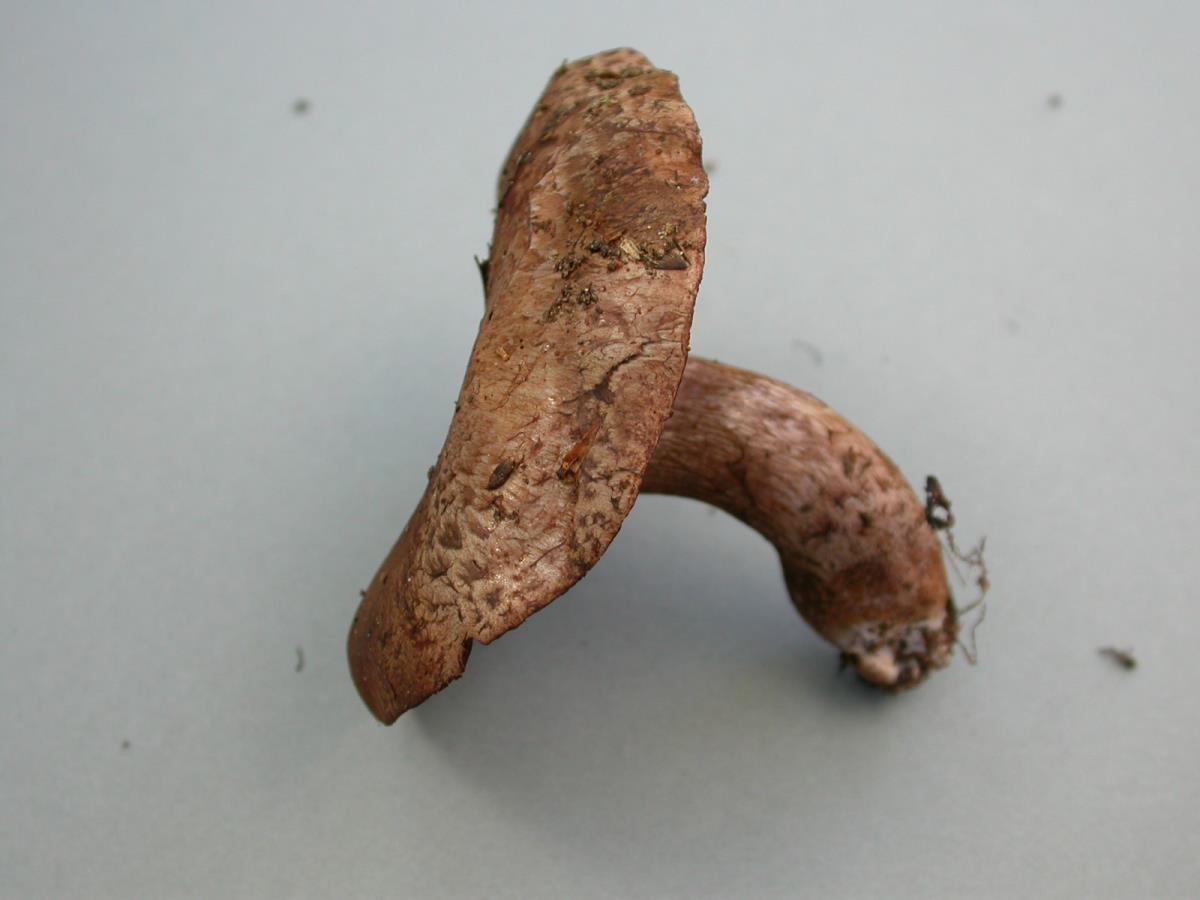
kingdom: Fungi
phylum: Basidiomycota
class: Agaricomycetes
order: Agaricales
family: Agaricaceae
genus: Agaricus
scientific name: Agaricus horakii
